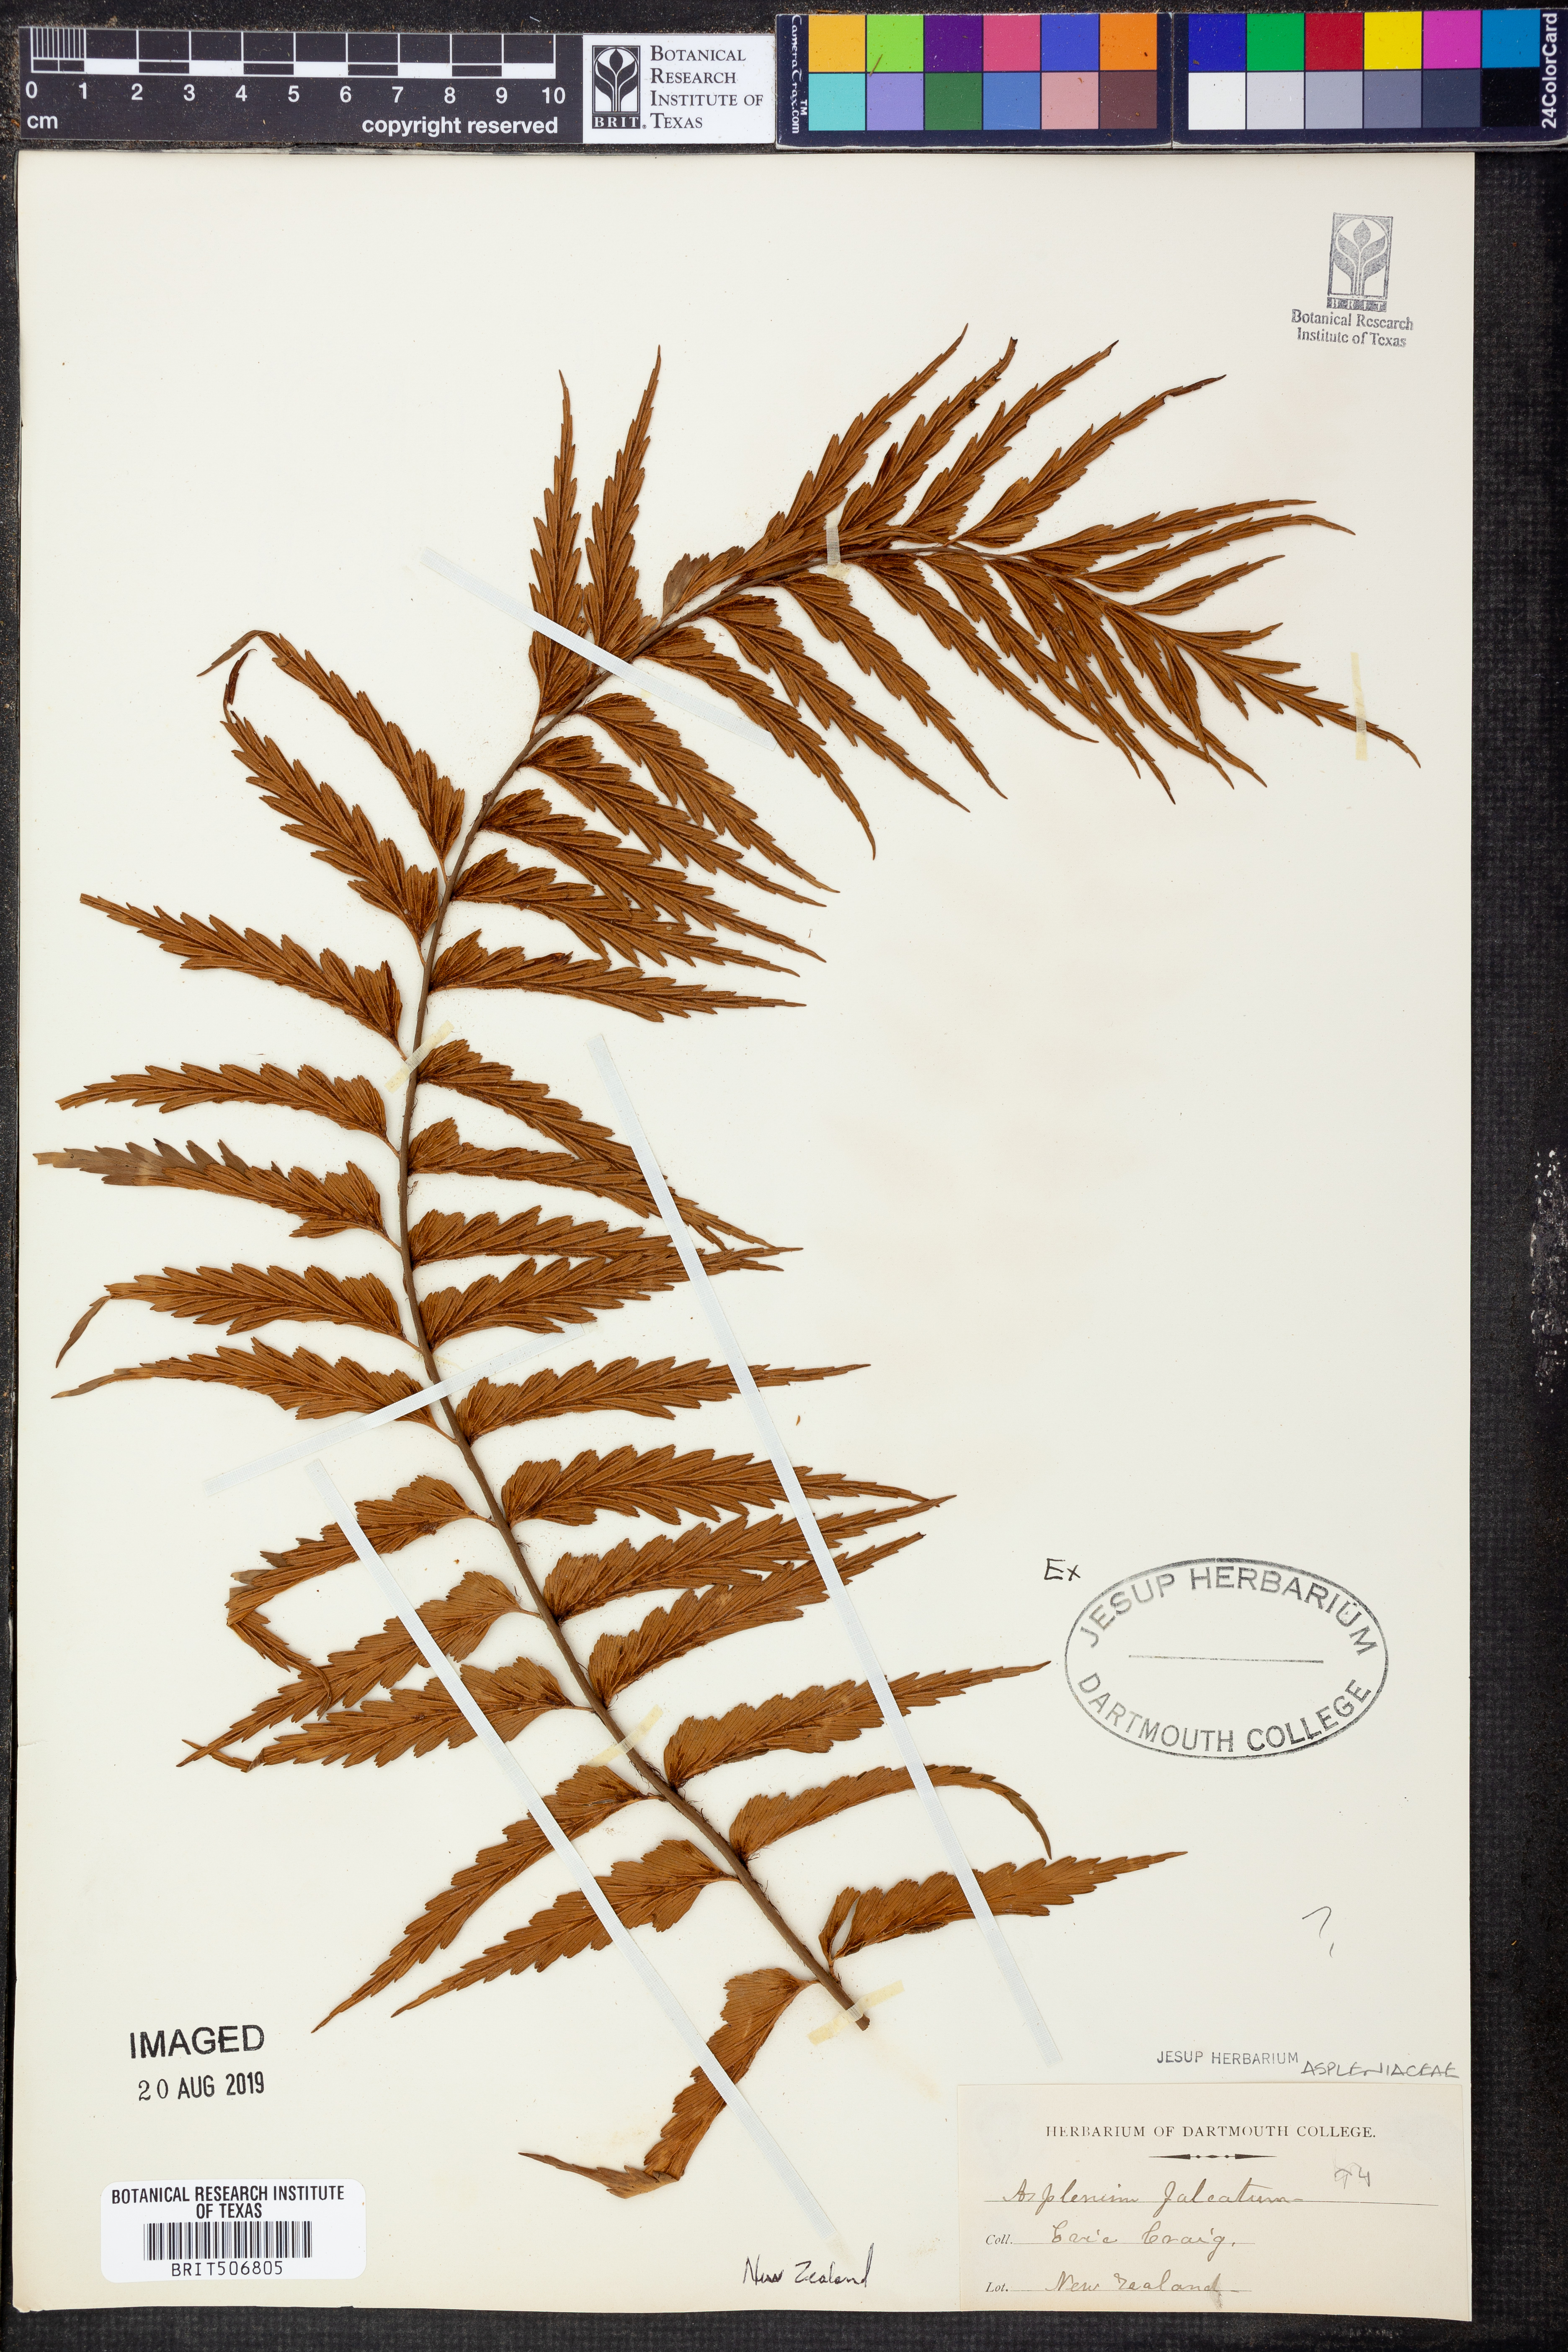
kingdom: Plantae
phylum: Tracheophyta
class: Polypodiopsida
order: Polypodiales
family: Aspleniaceae
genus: Asplenium
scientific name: Asplenium falcatum
